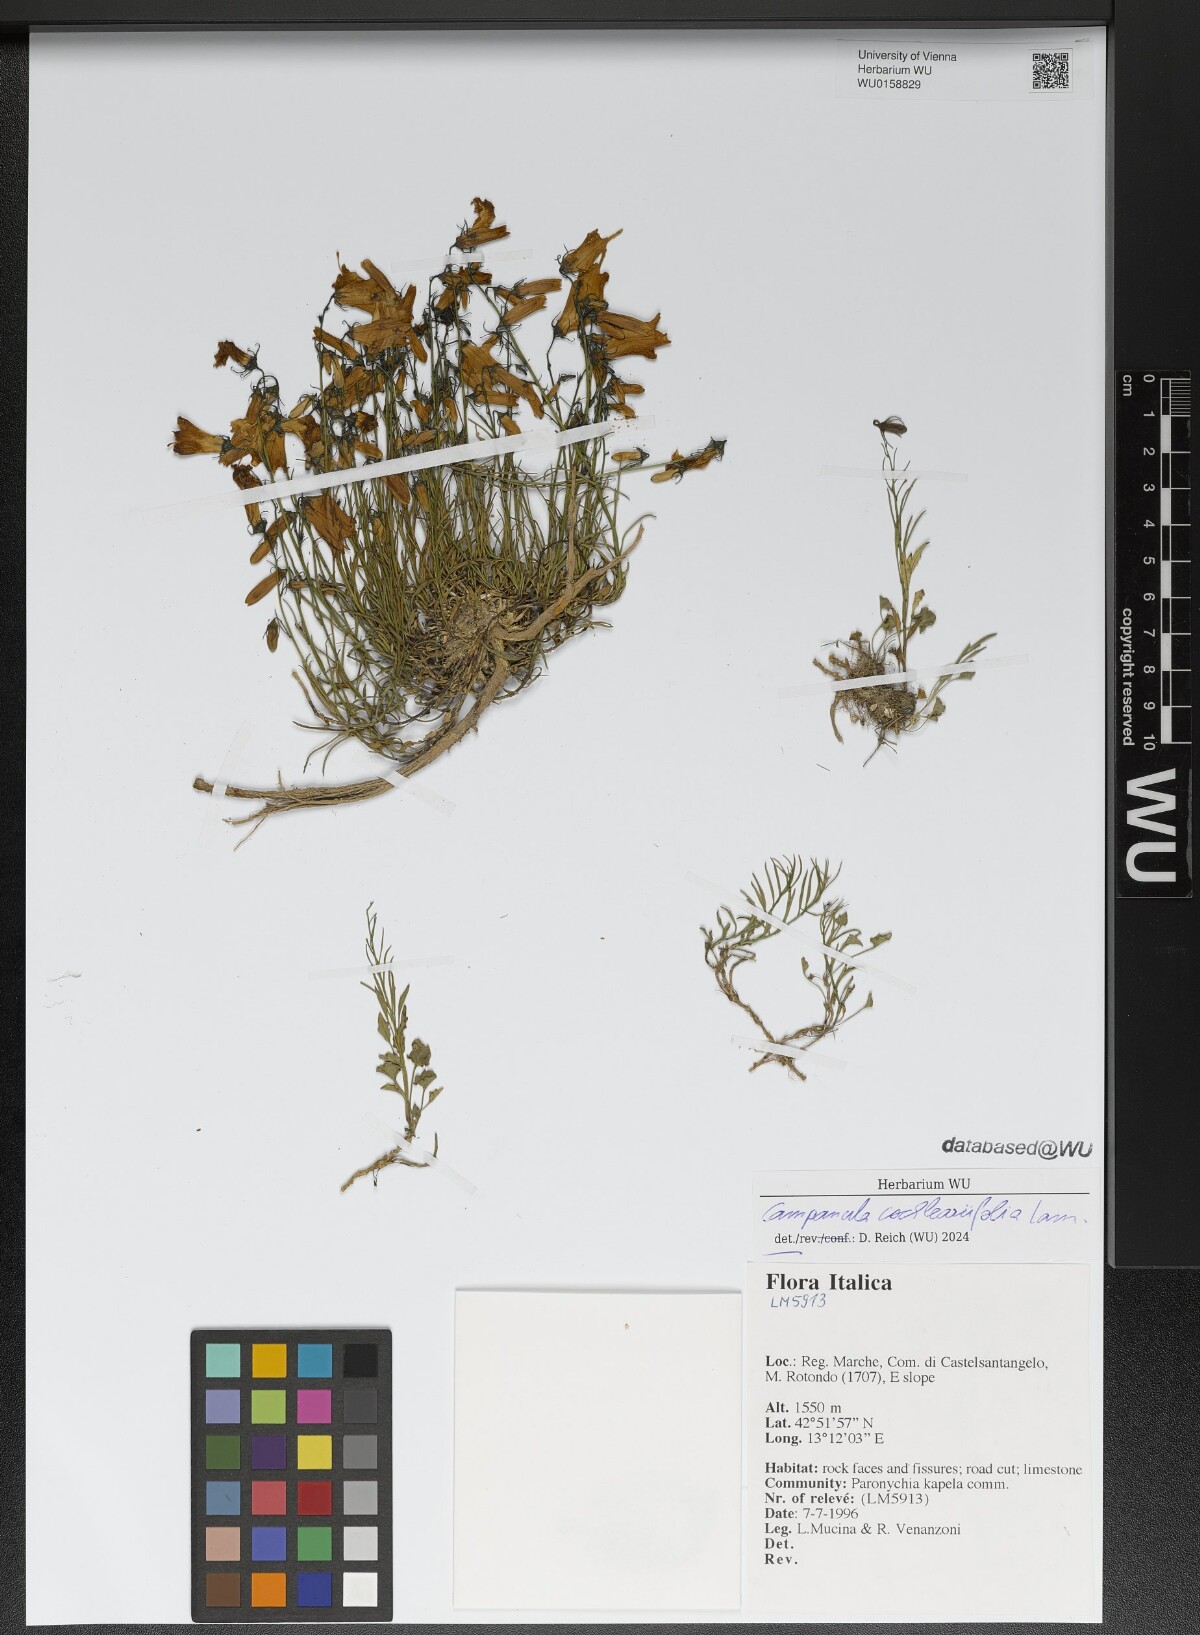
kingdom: Plantae
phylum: Tracheophyta
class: Magnoliopsida
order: Asterales
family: Campanulaceae
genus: Campanula
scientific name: Campanula cochleariifolia
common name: Fairies'-thimbles
